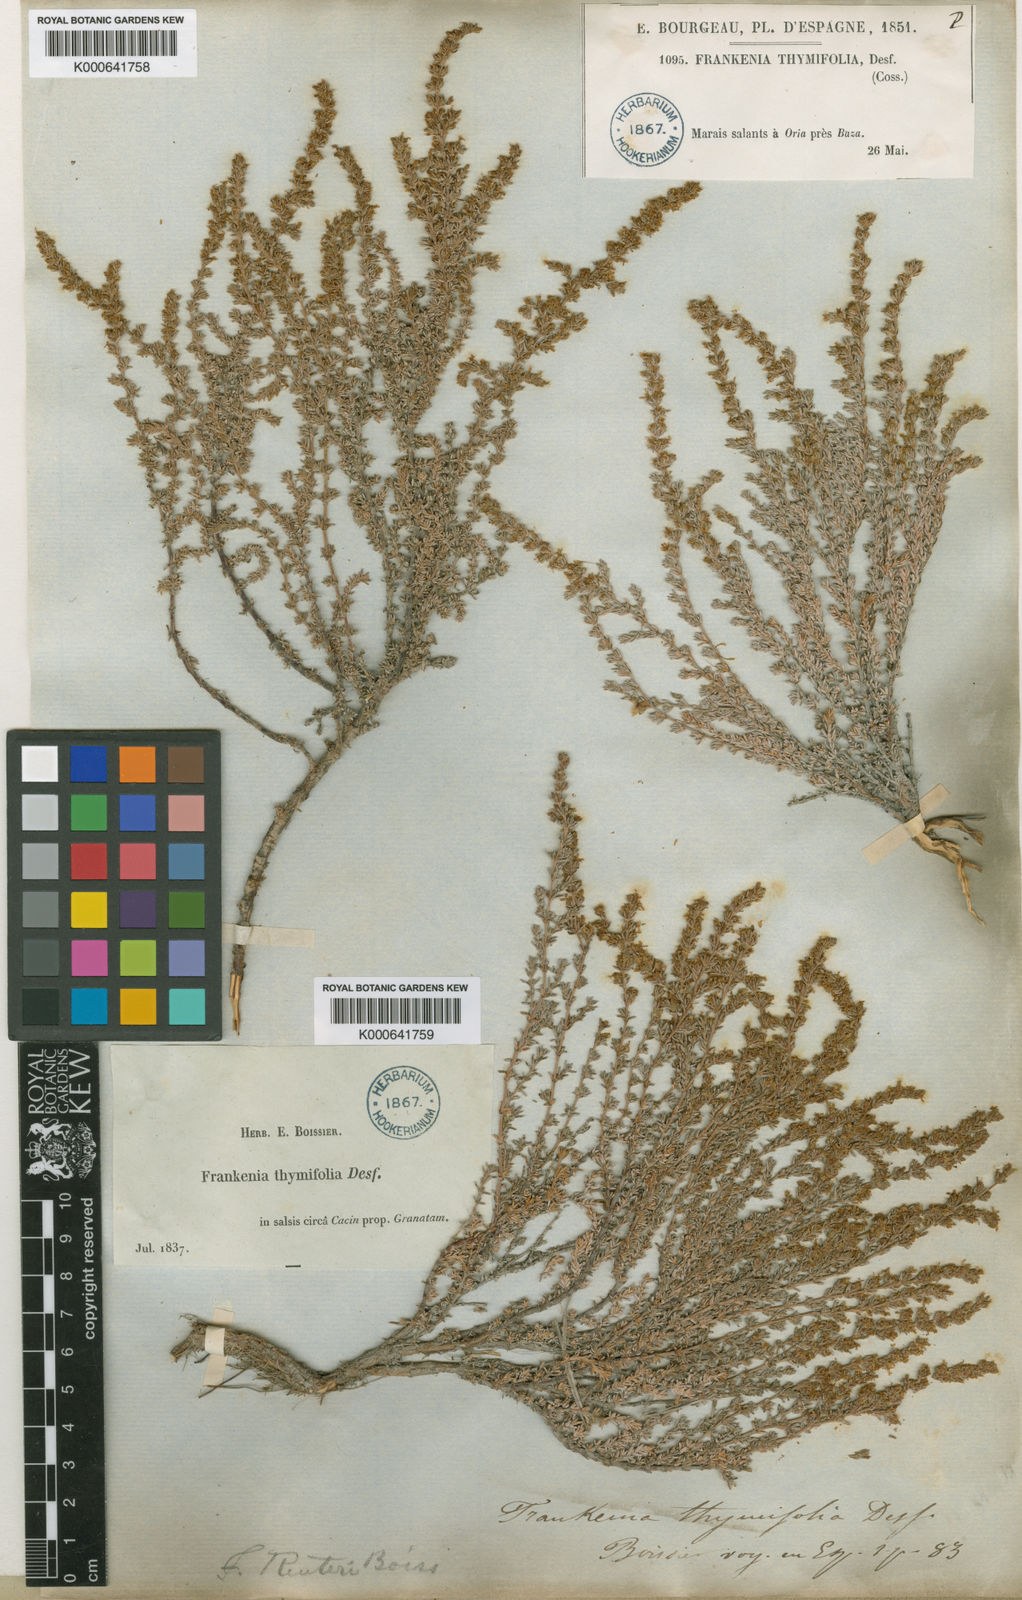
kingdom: Plantae
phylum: Tracheophyta
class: Magnoliopsida
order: Caryophyllales
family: Frankeniaceae
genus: Frankenia
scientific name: Frankenia thymifolia
